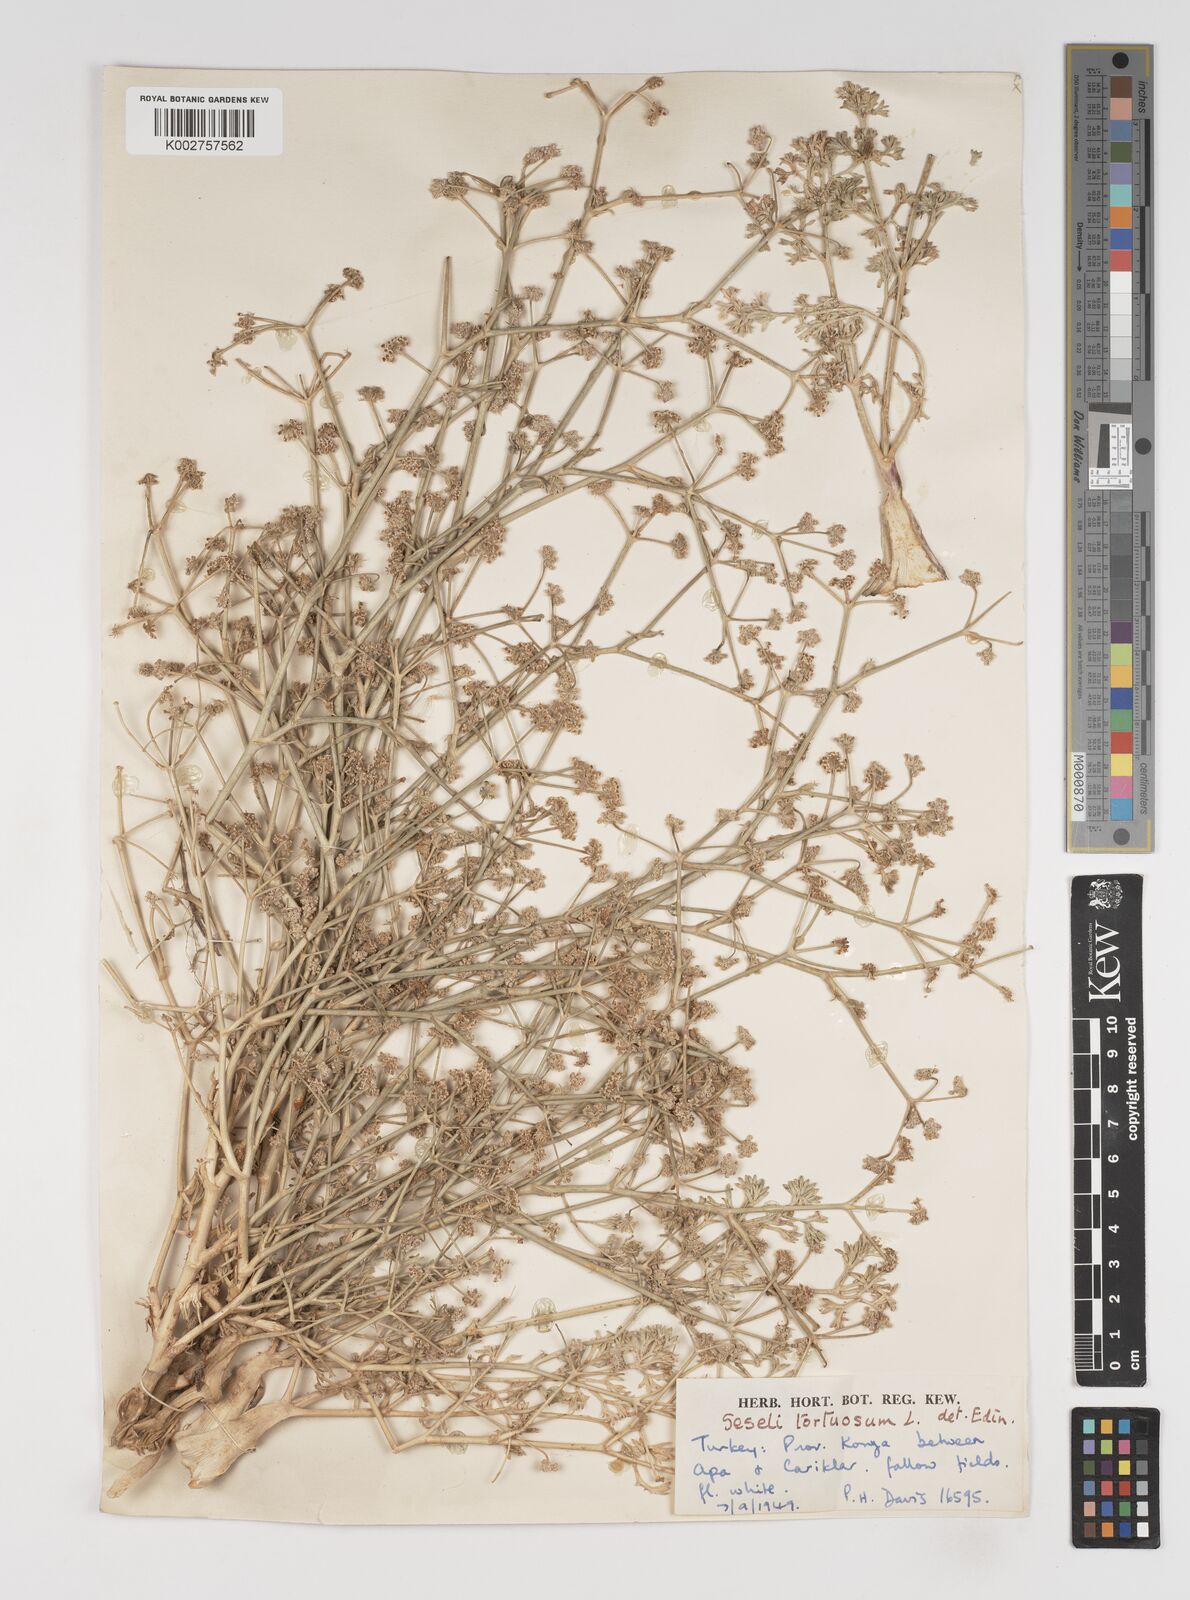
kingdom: Plantae
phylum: Tracheophyta
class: Magnoliopsida
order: Apiales
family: Apiaceae
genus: Seseli
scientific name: Seseli tortuosum
